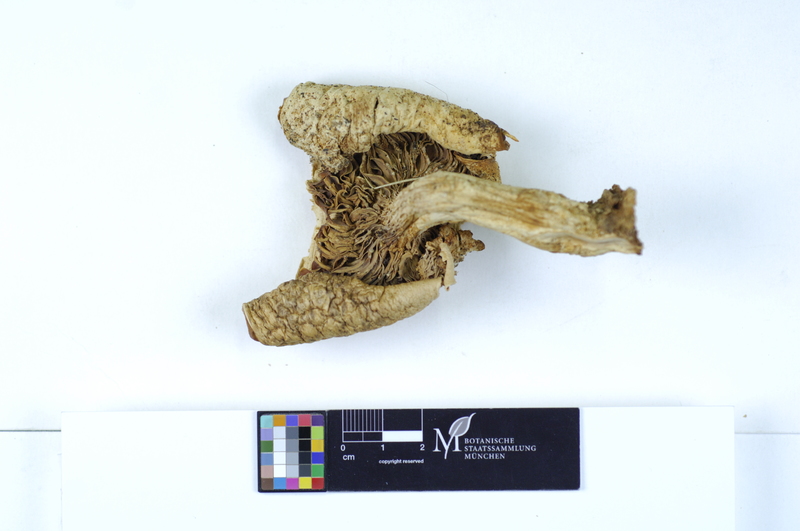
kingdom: Plantae
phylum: Tracheophyta
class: Magnoliopsida
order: Fagales
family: Fagaceae
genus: Quercus
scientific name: Quercus
